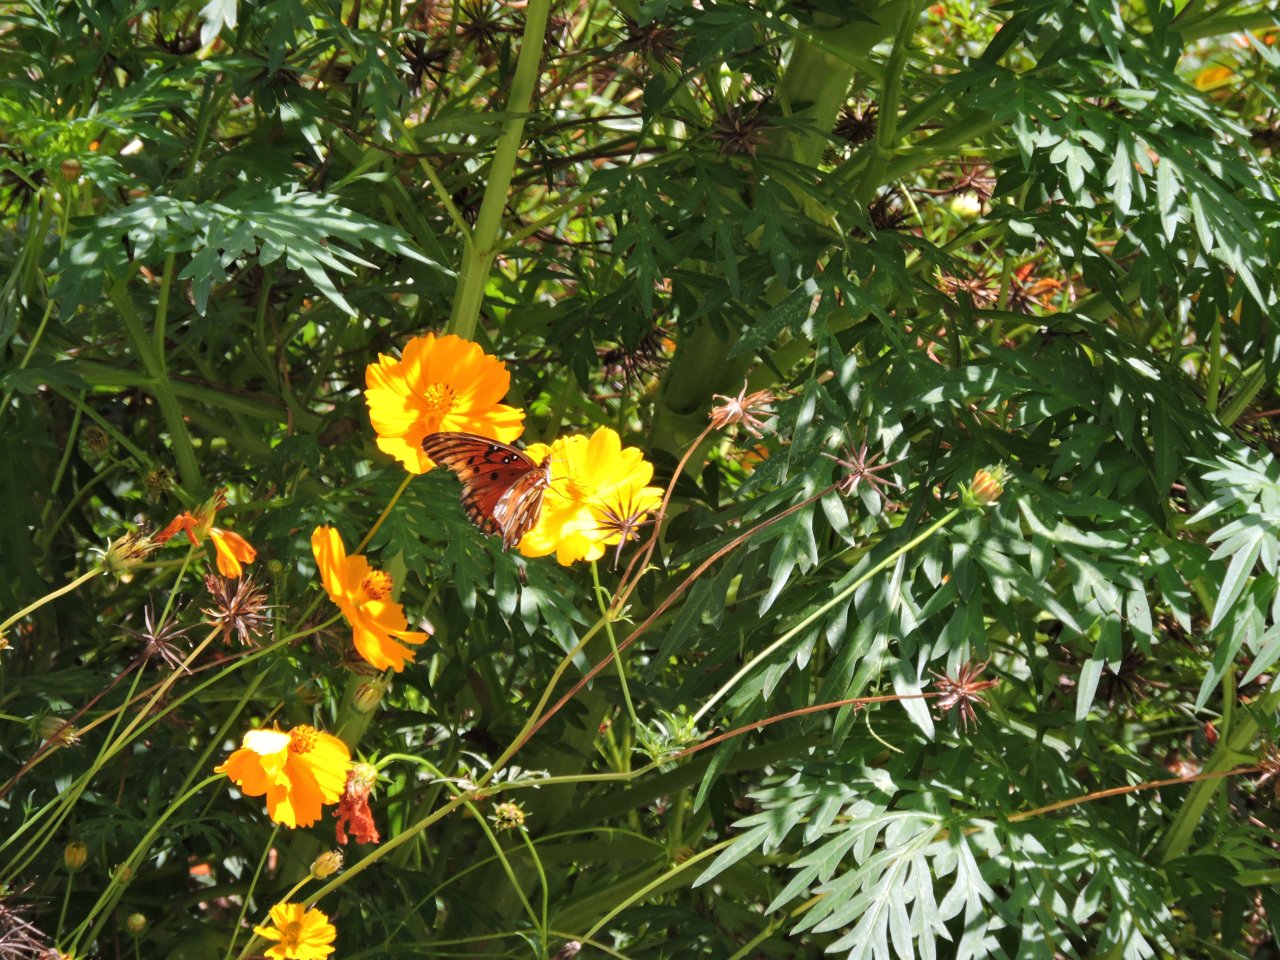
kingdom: Animalia
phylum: Arthropoda
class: Insecta
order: Lepidoptera
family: Nymphalidae
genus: Dione
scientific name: Dione vanillae
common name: Gulf Fritillary
